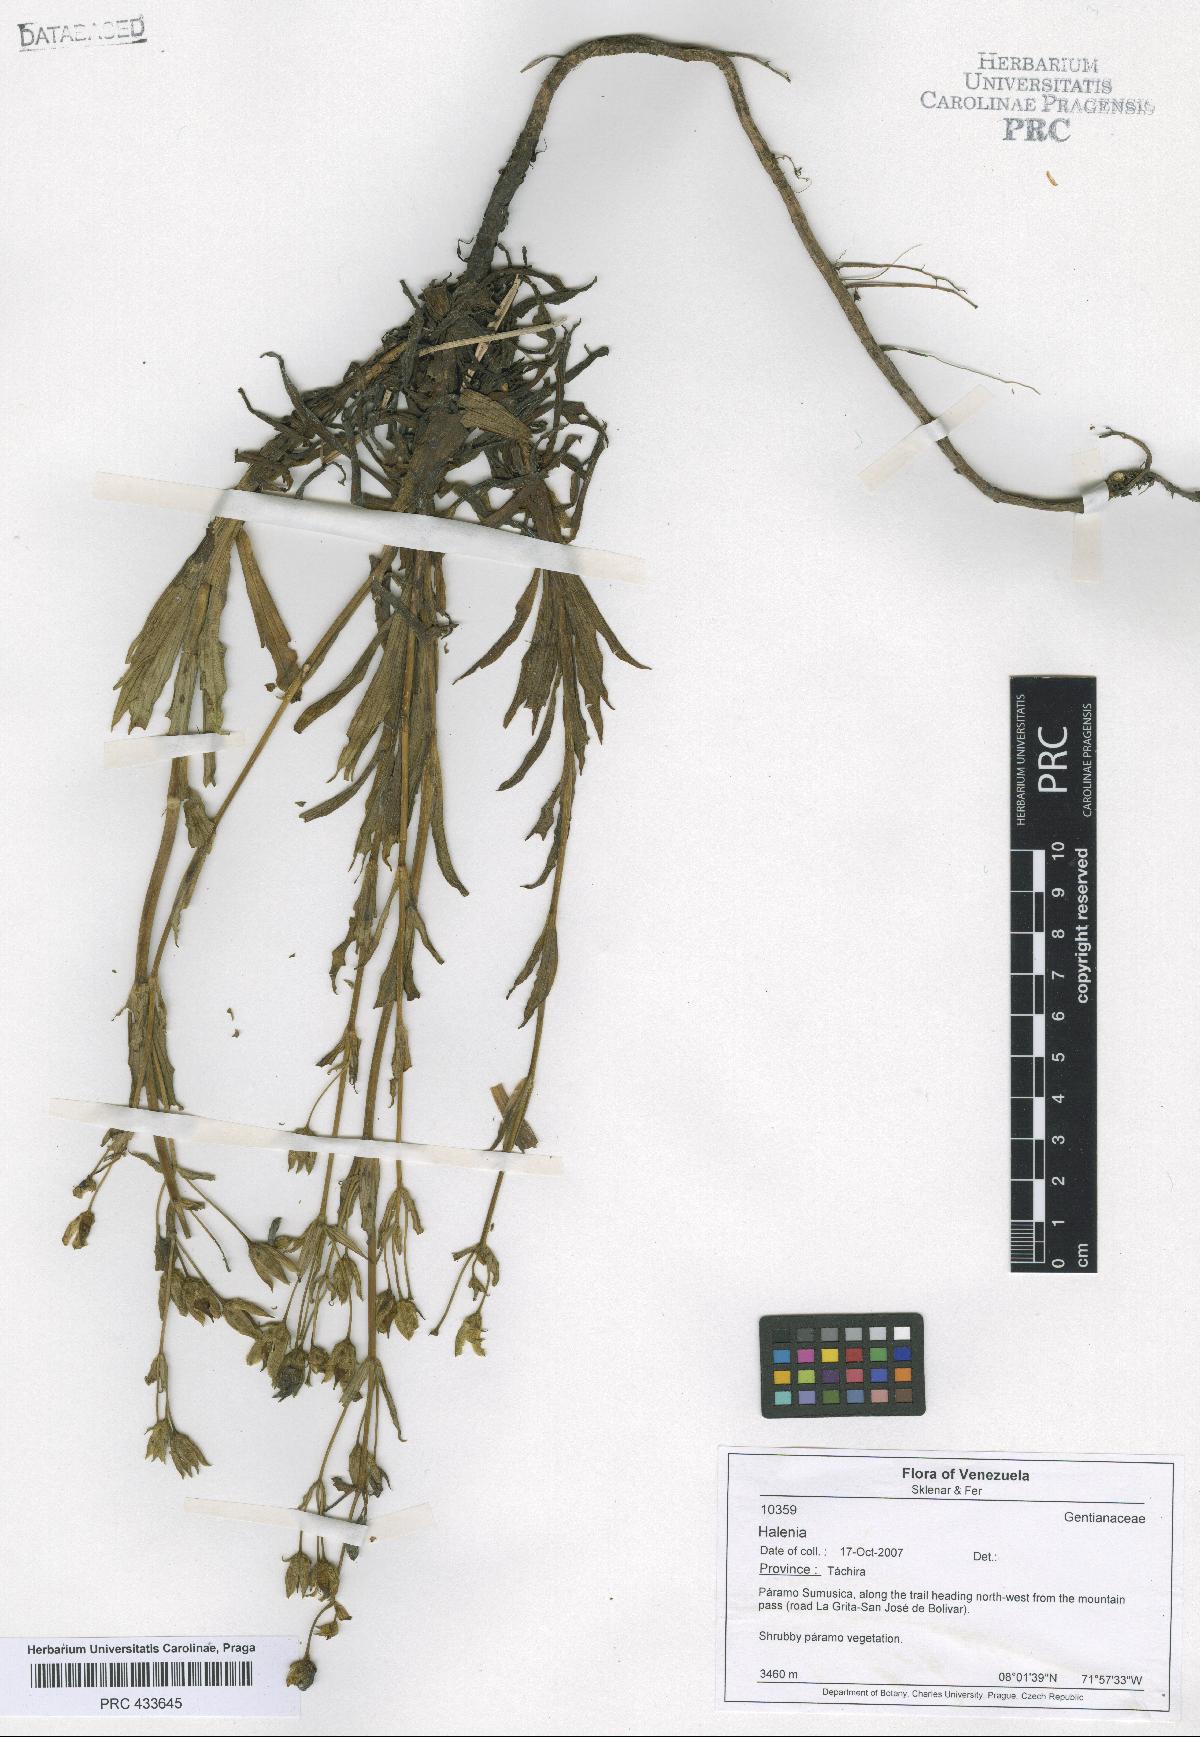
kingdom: Plantae
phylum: Tracheophyta
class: Magnoliopsida
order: Gentianales
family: Gentianaceae
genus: Halenia
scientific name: Halenia
